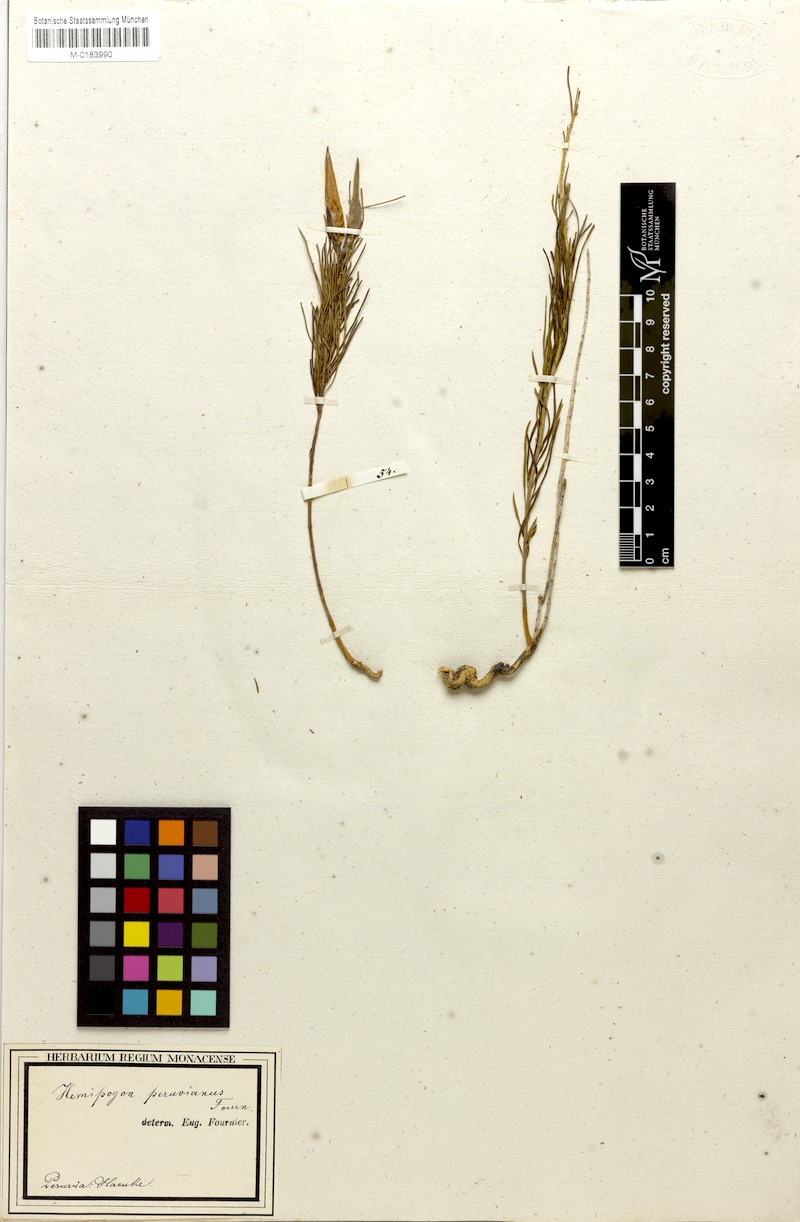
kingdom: Plantae
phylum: Tracheophyta
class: Magnoliopsida
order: Gentianales
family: Apocynaceae
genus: Hemipogon
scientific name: Hemipogon peruvianus
